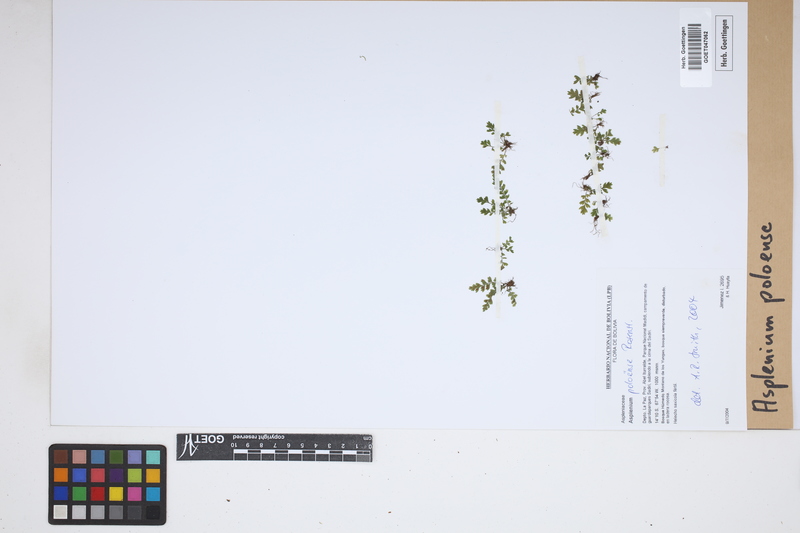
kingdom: Plantae
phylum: Tracheophyta
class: Polypodiopsida
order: Polypodiales
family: Aspleniaceae
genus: Asplenium
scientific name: Asplenium poloense
